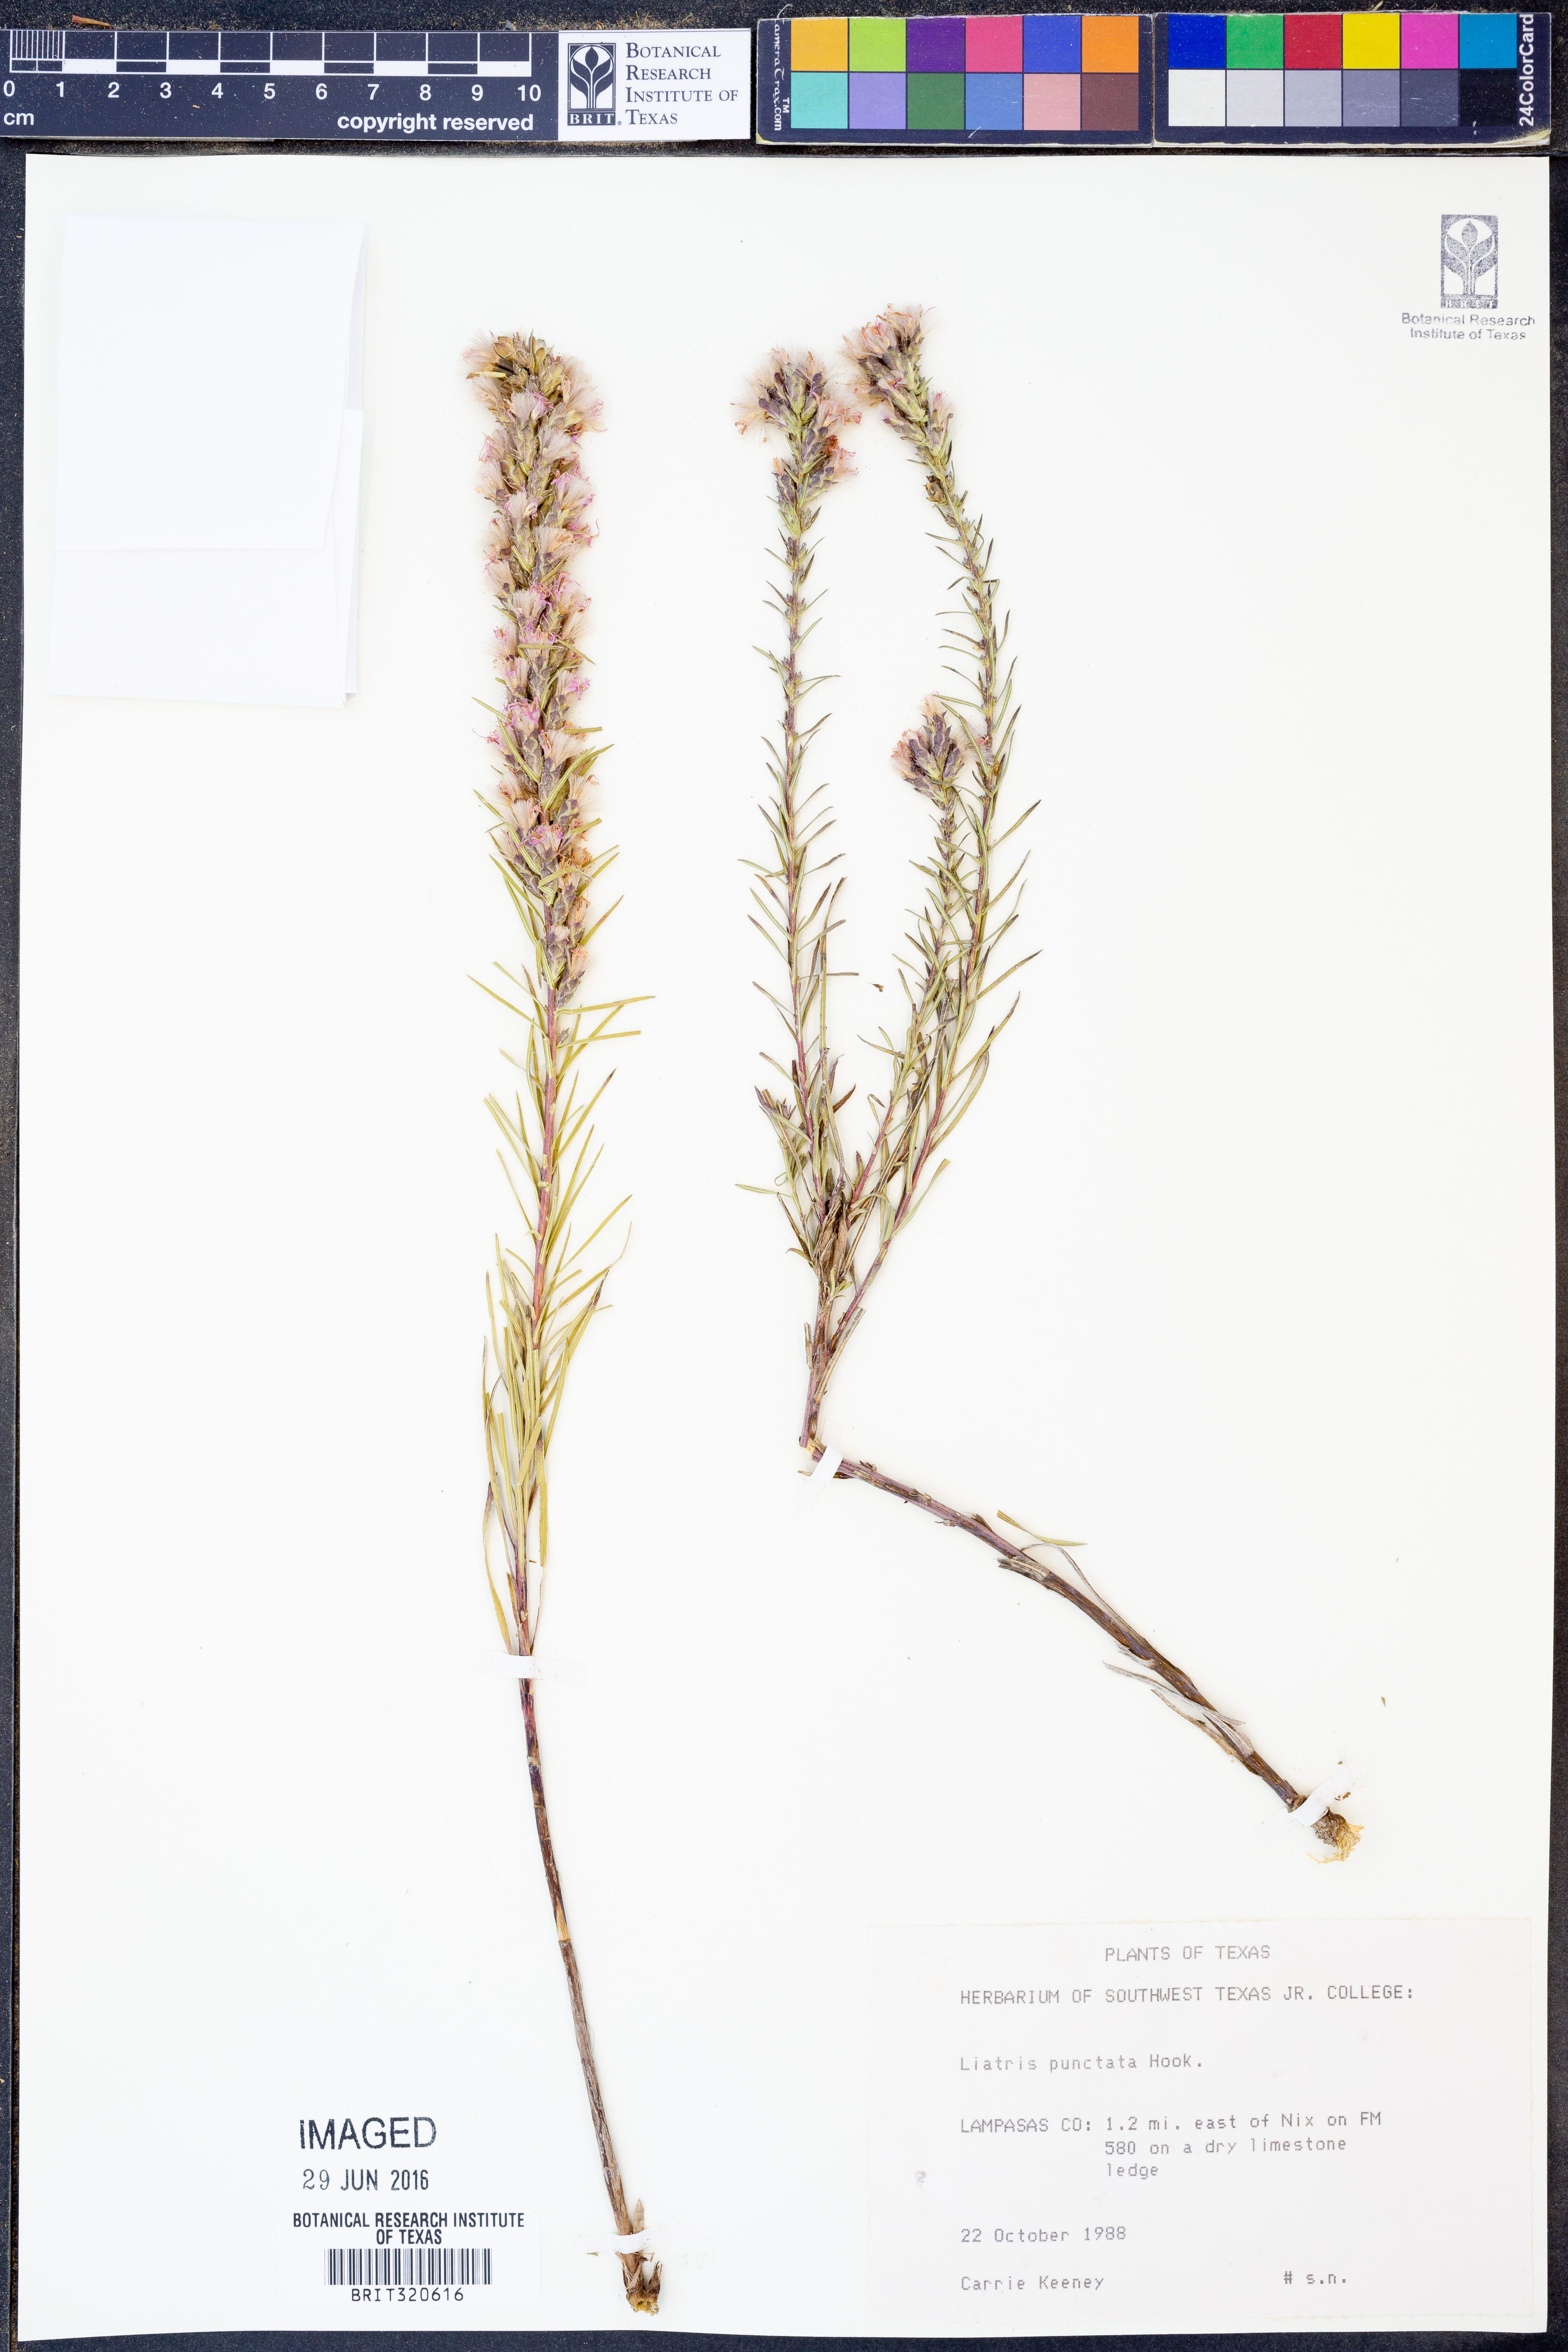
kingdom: Plantae
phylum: Tracheophyta
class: Magnoliopsida
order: Asterales
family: Asteraceae
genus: Liatris
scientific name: Liatris punctata
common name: Dotted gayfeather
